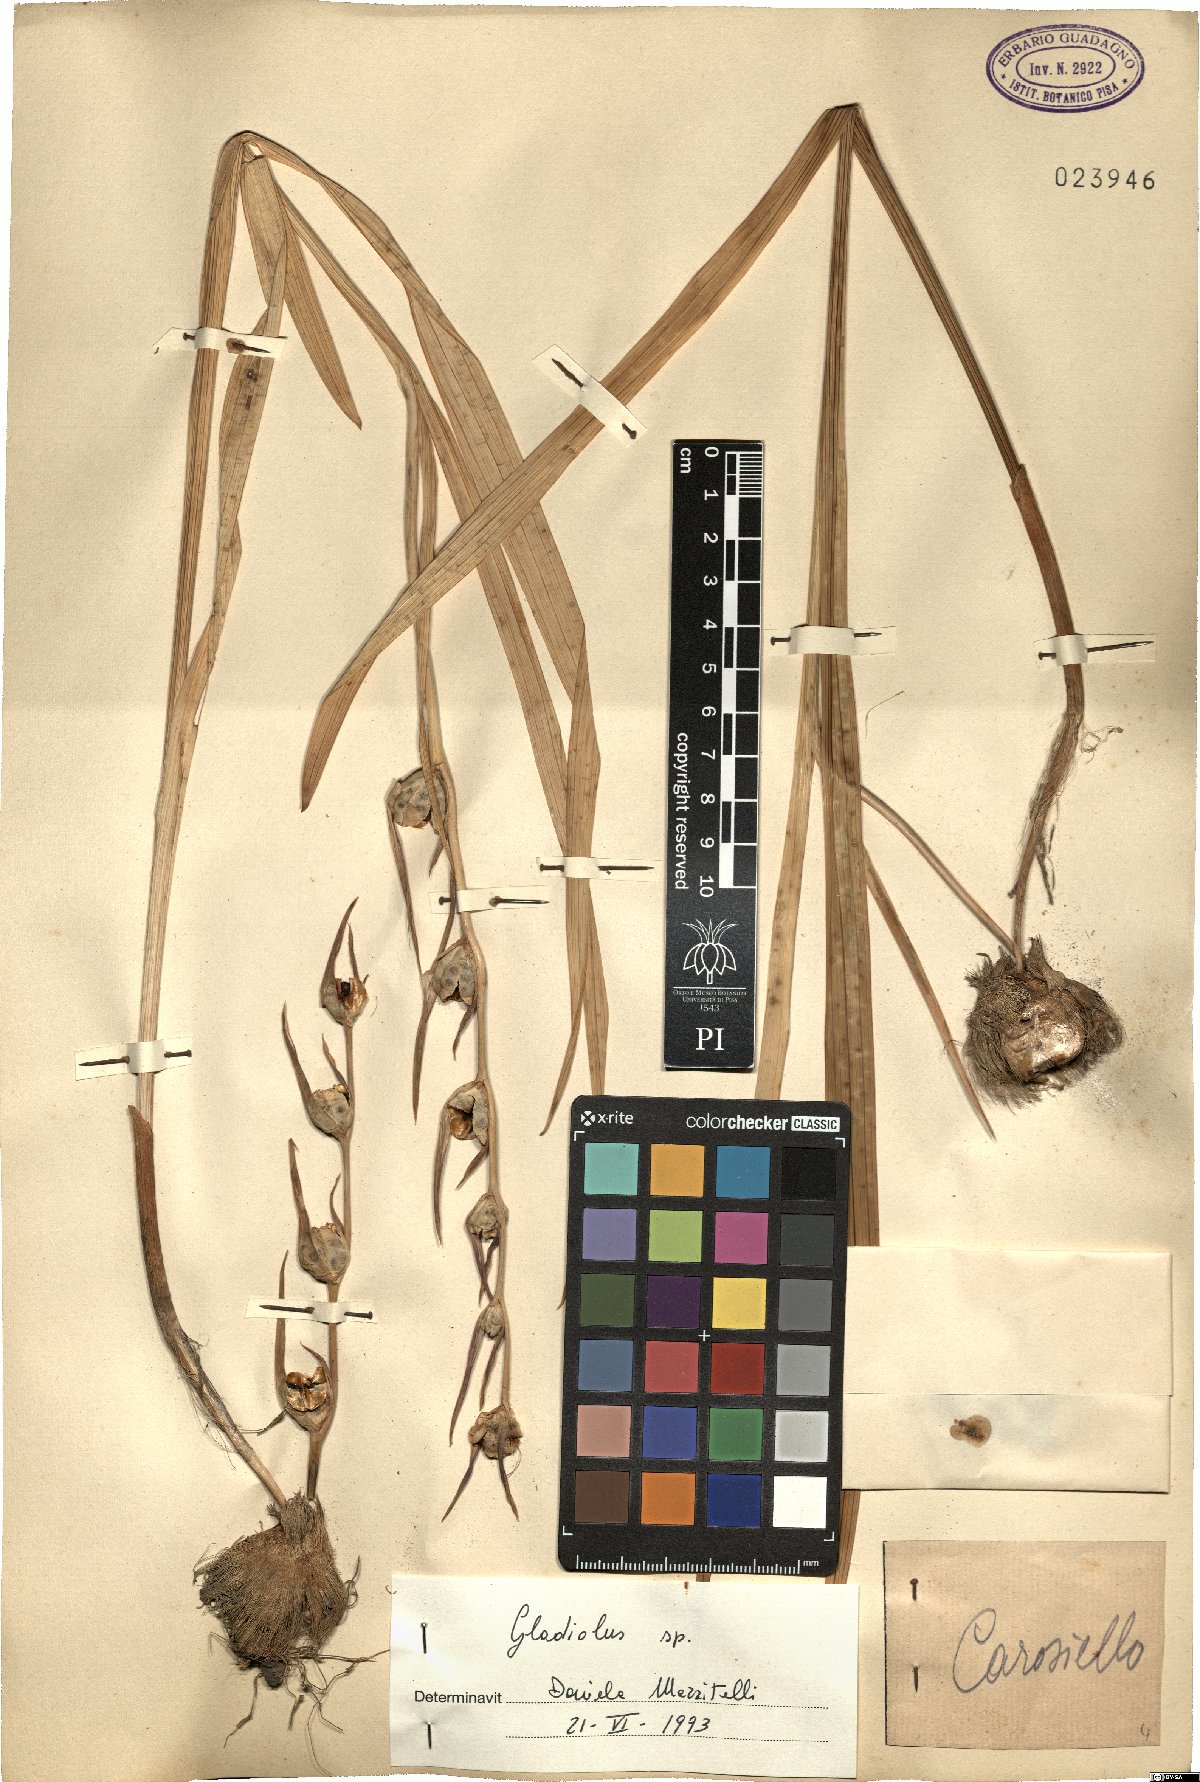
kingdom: Plantae
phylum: Tracheophyta
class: Liliopsida
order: Asparagales
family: Iridaceae
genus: Gladiolus
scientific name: Gladiolus
